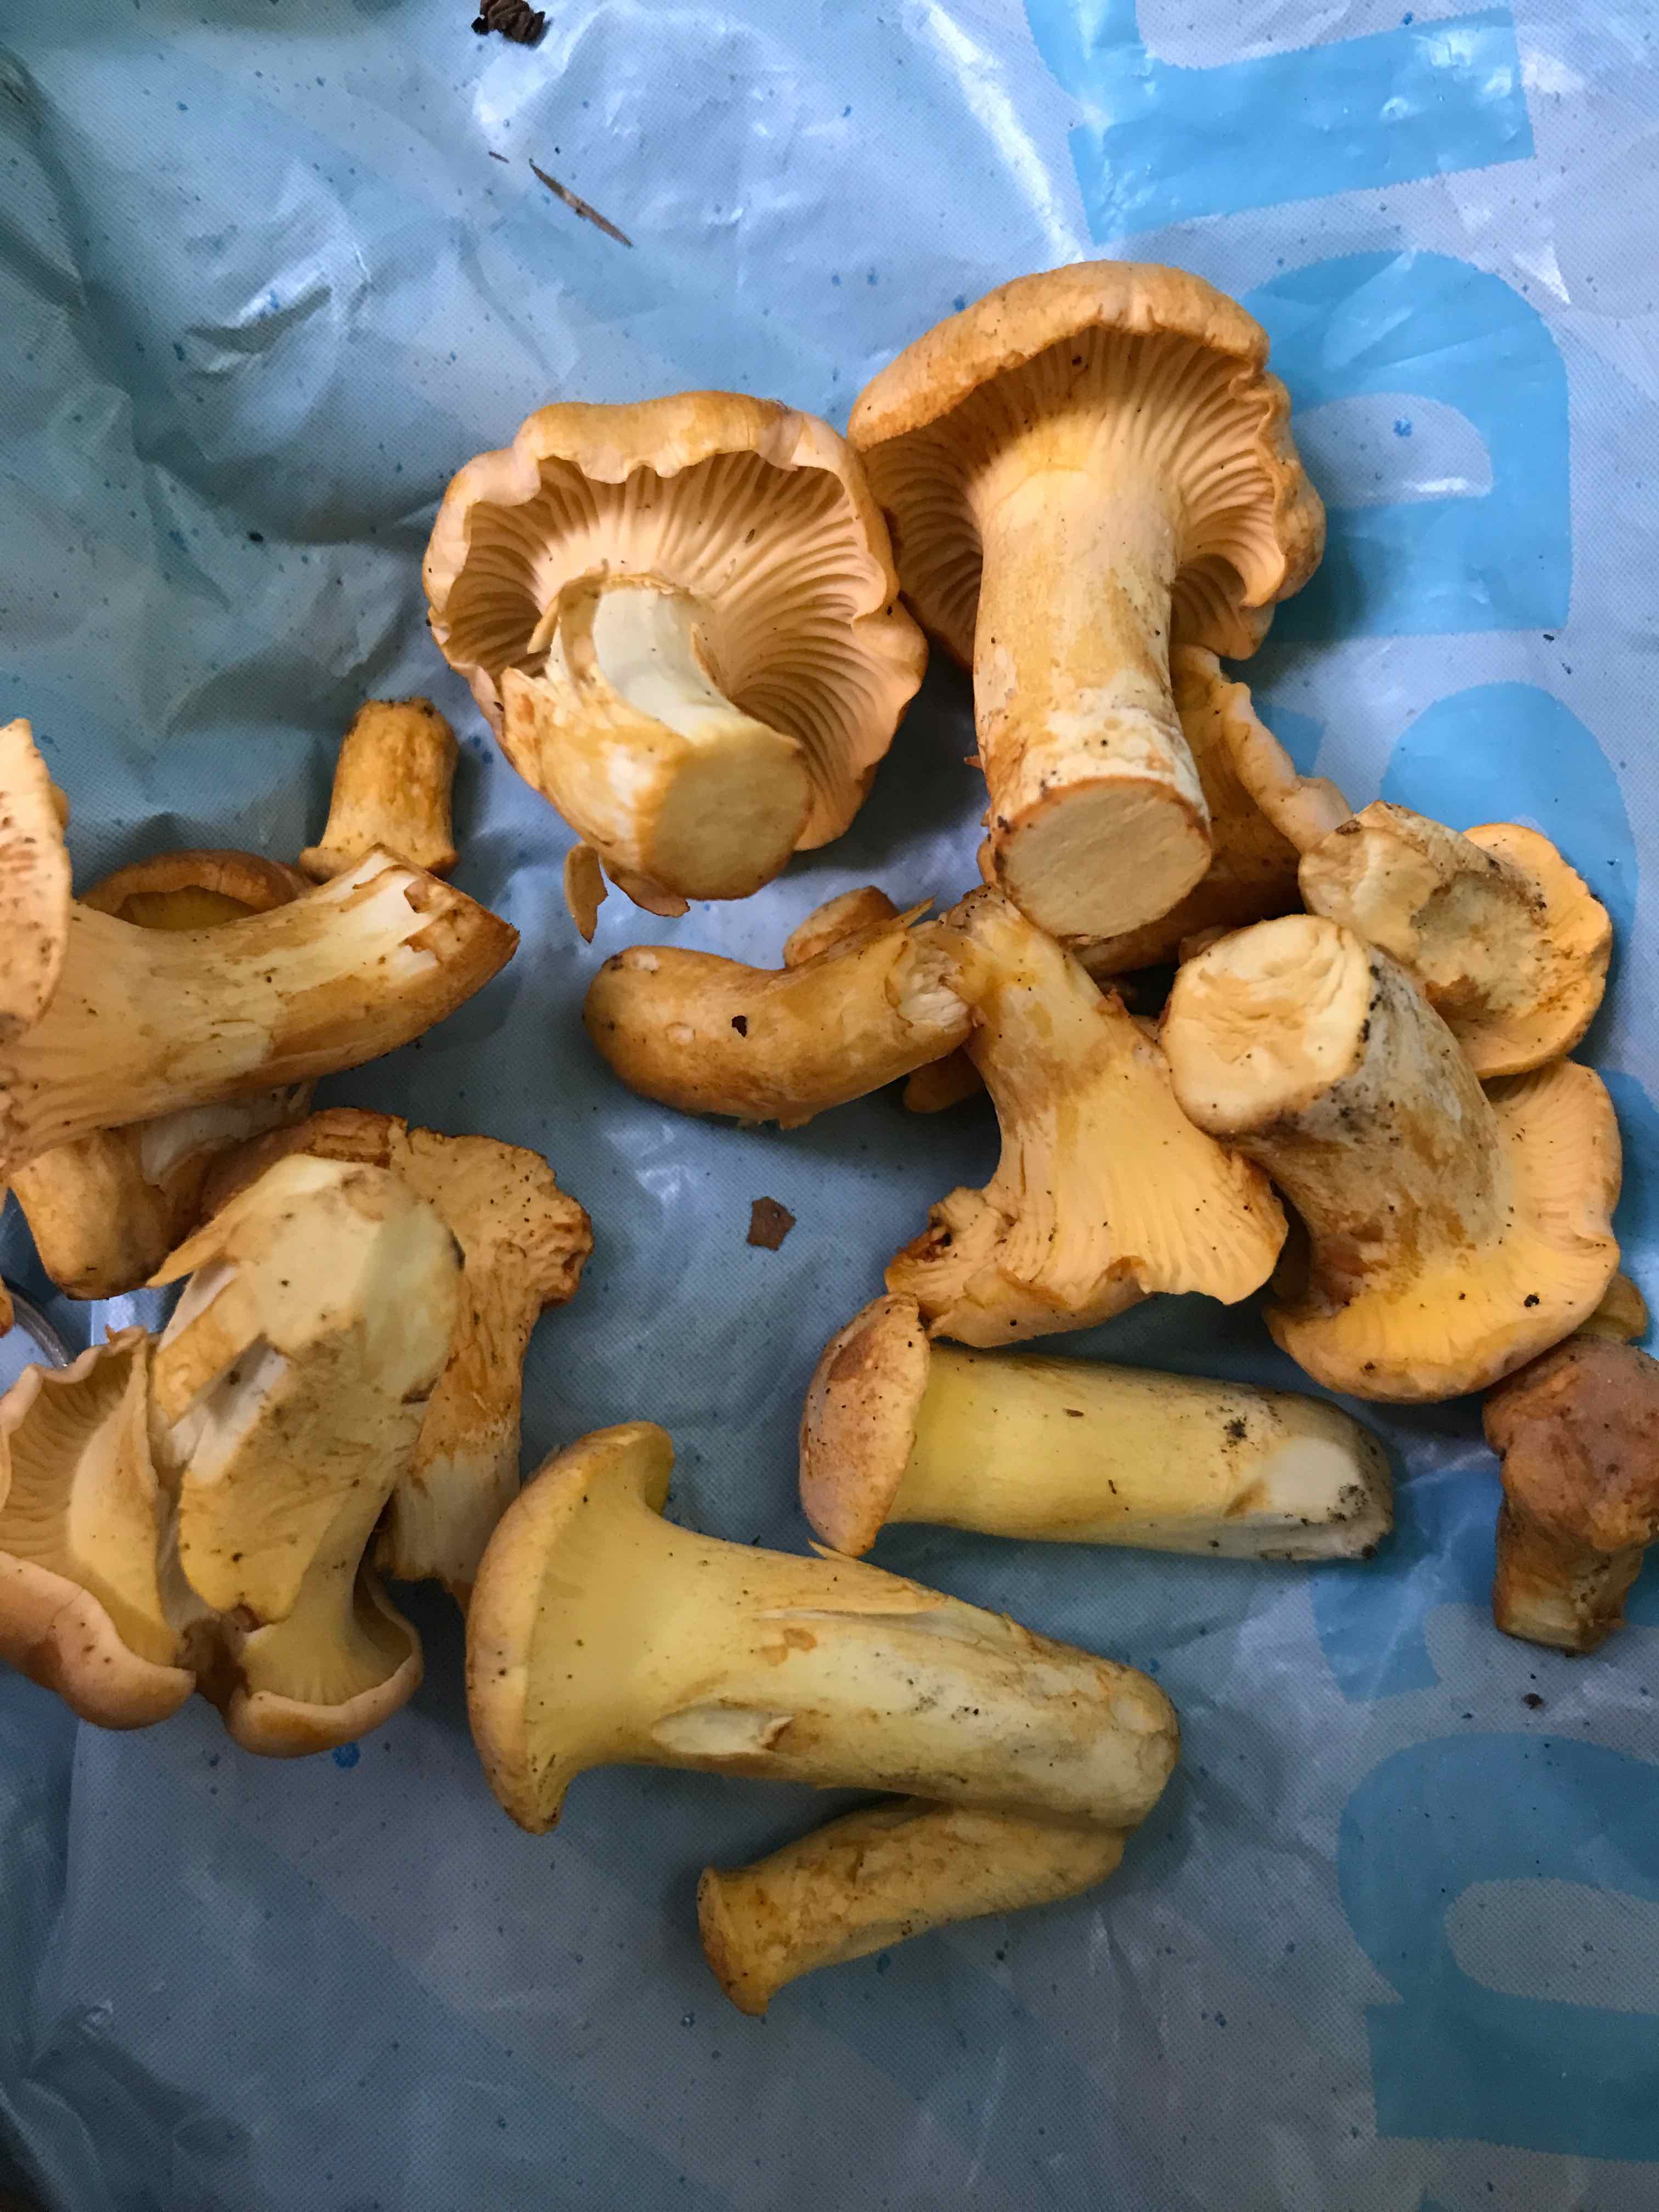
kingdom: Fungi
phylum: Basidiomycota
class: Agaricomycetes
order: Cantharellales
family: Hydnaceae
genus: Cantharellus
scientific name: Cantharellus pallens
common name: bleg kantarel
